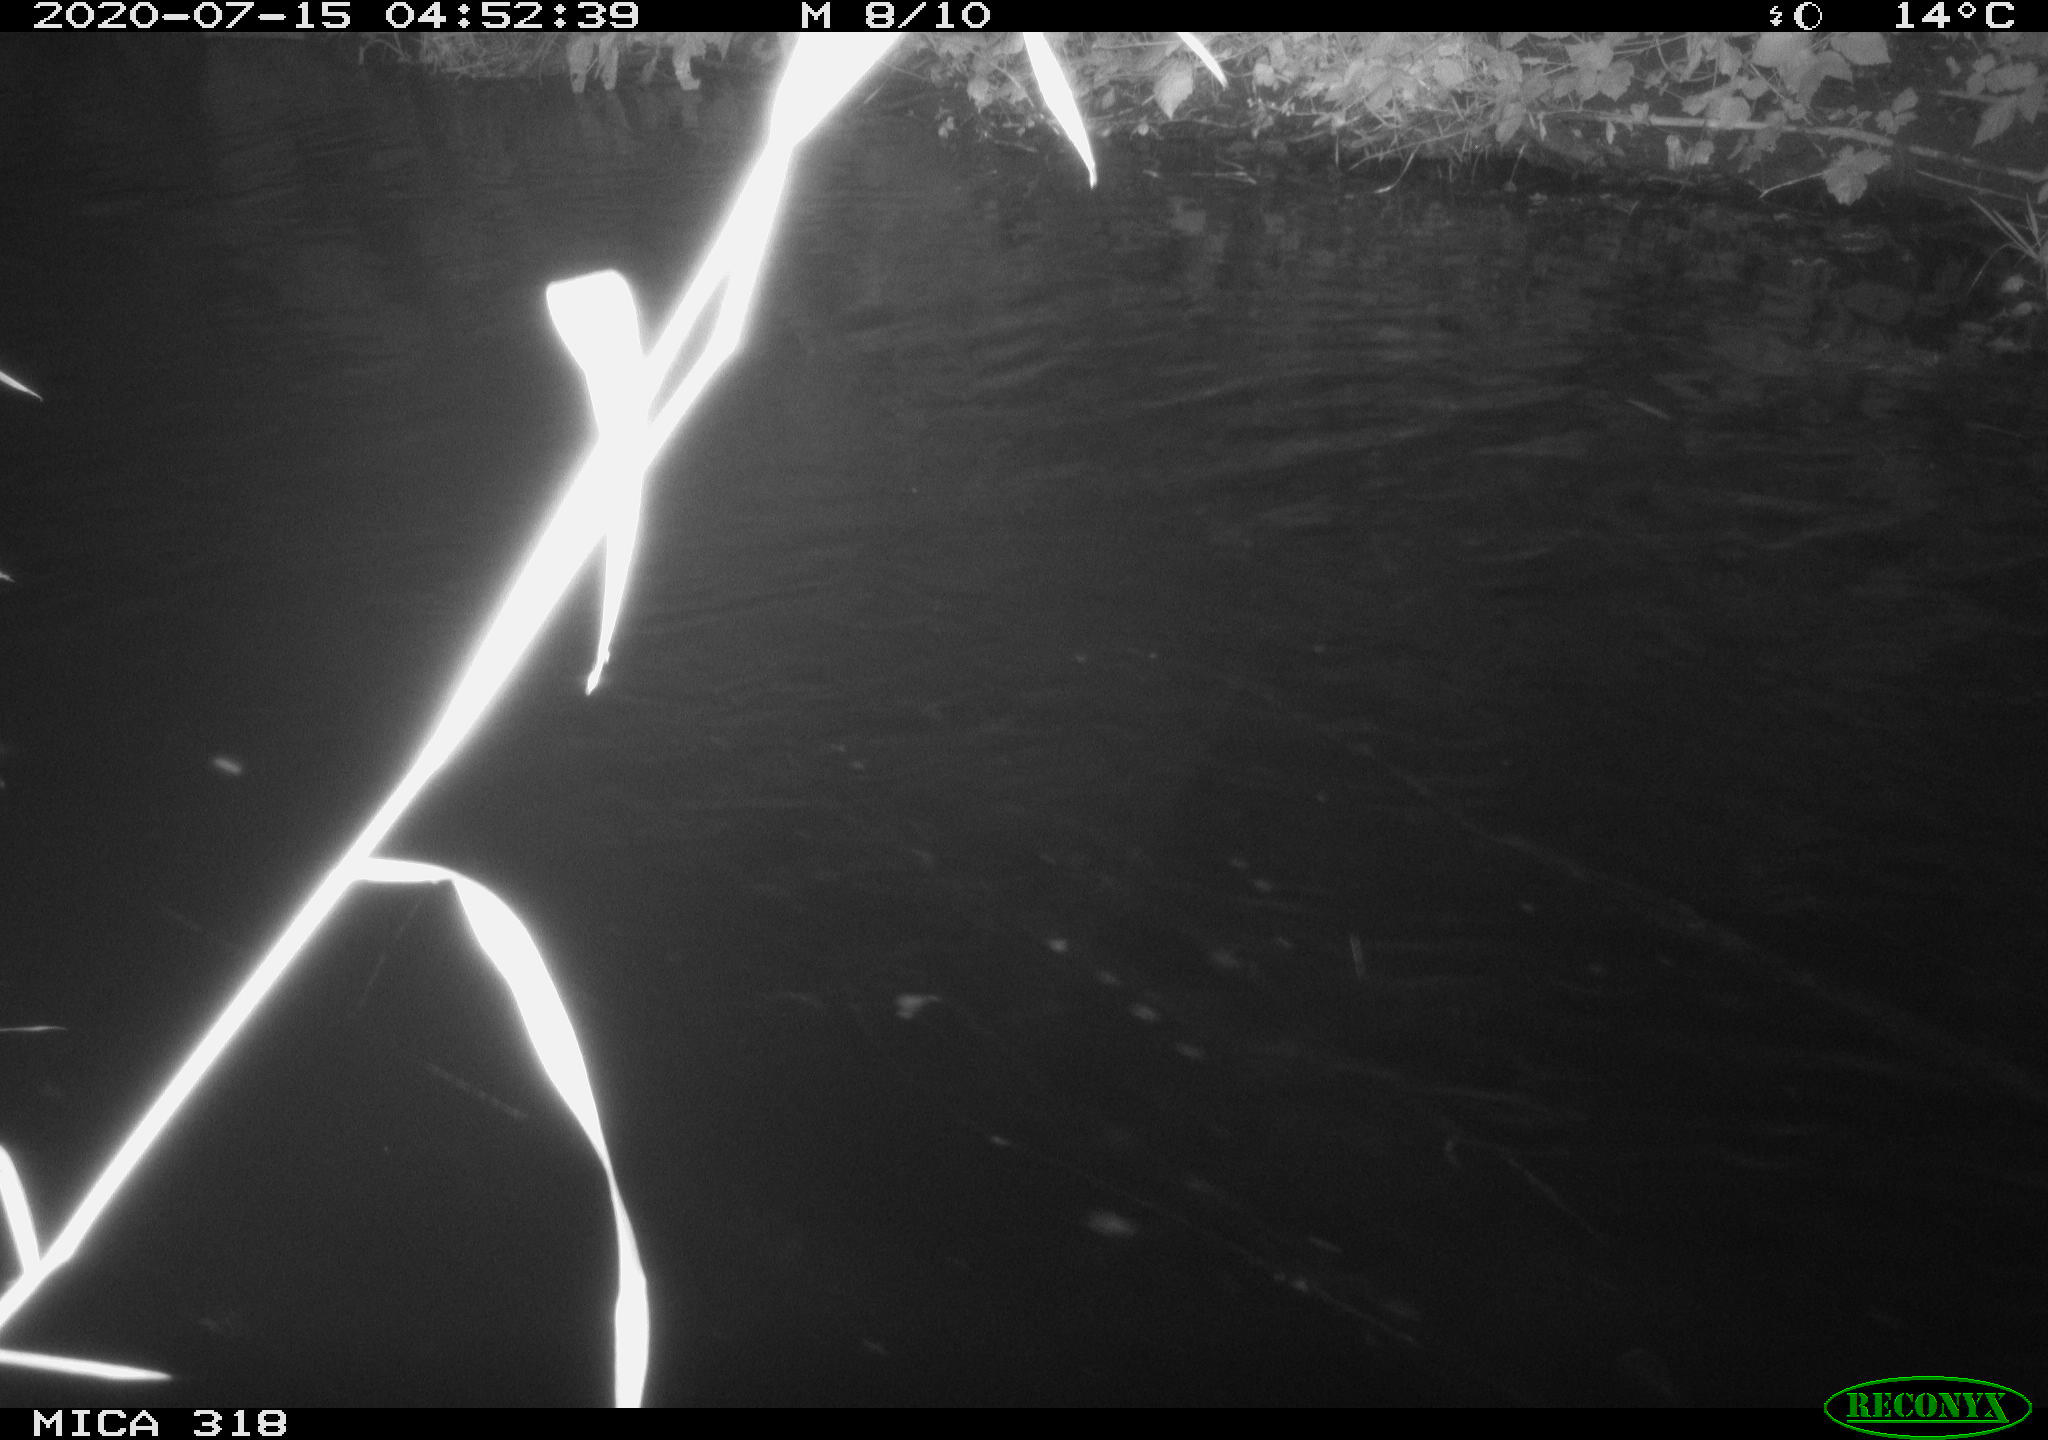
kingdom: Animalia
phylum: Chordata
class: Aves
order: Anseriformes
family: Anatidae
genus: Mareca
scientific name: Mareca strepera
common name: Gadwall
